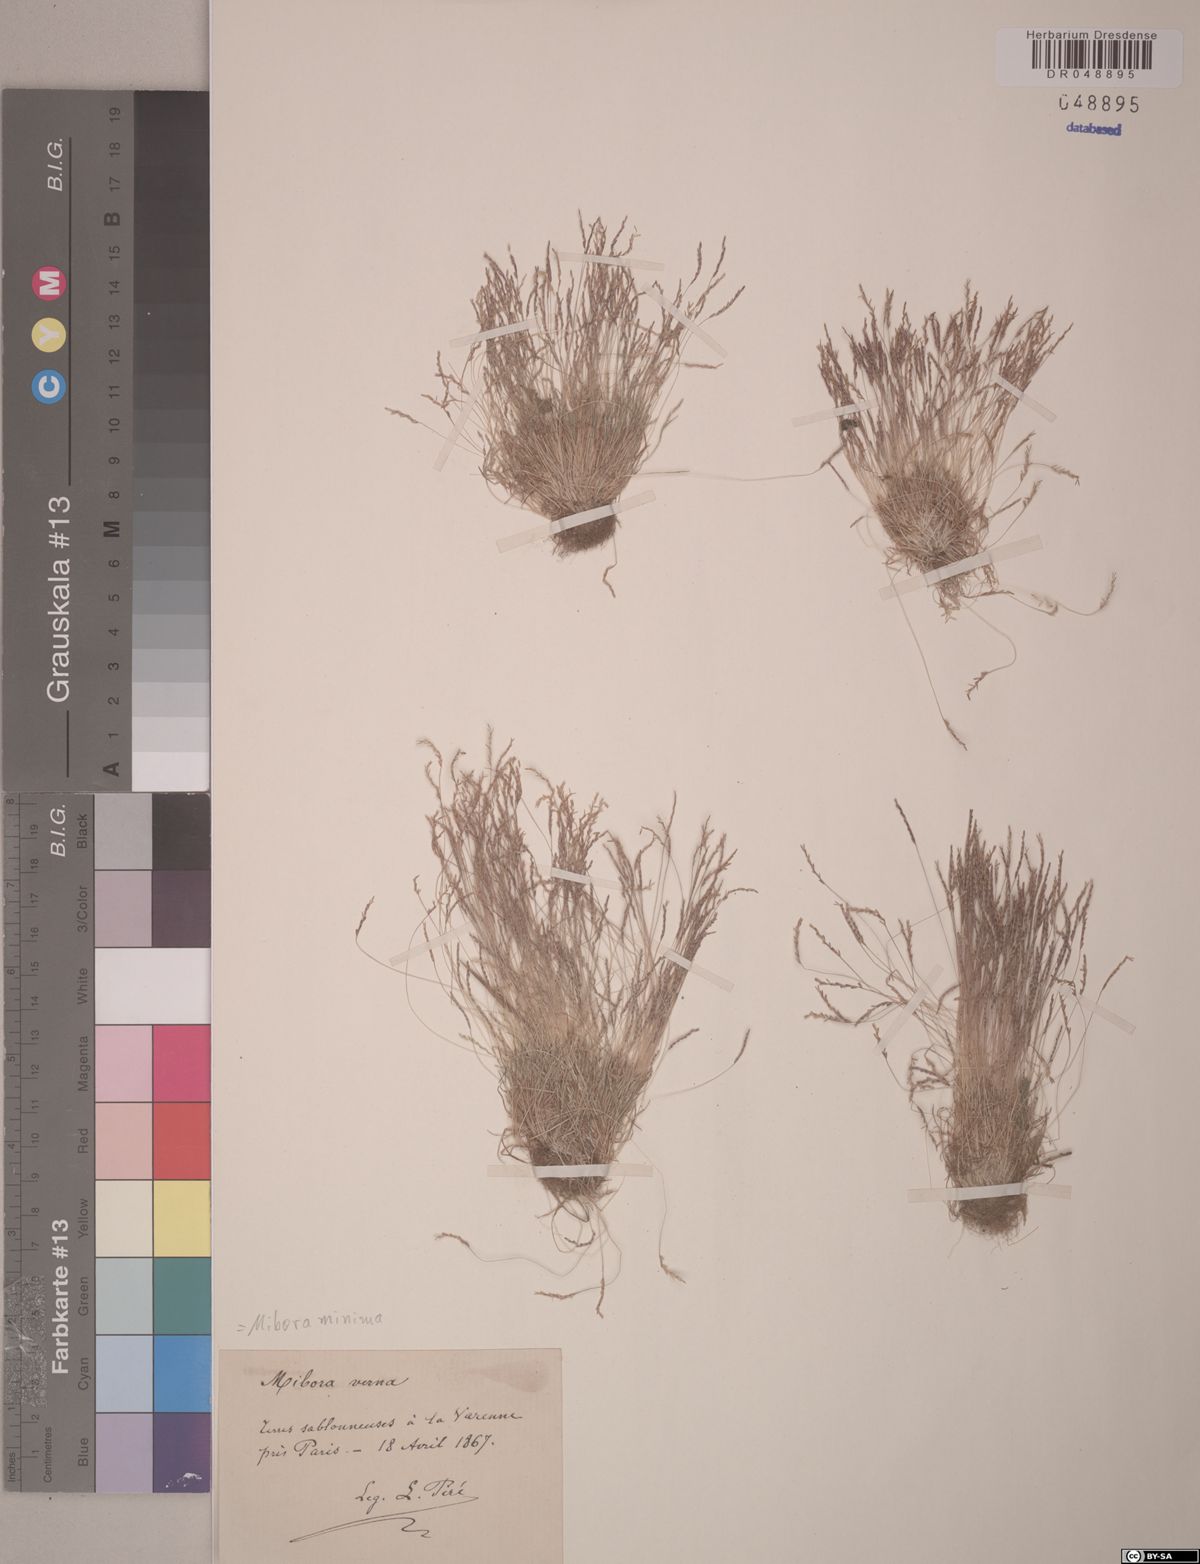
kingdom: Plantae
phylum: Tracheophyta
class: Liliopsida
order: Poales
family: Poaceae
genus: Mibora
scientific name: Mibora minima
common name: Early sand-grass
